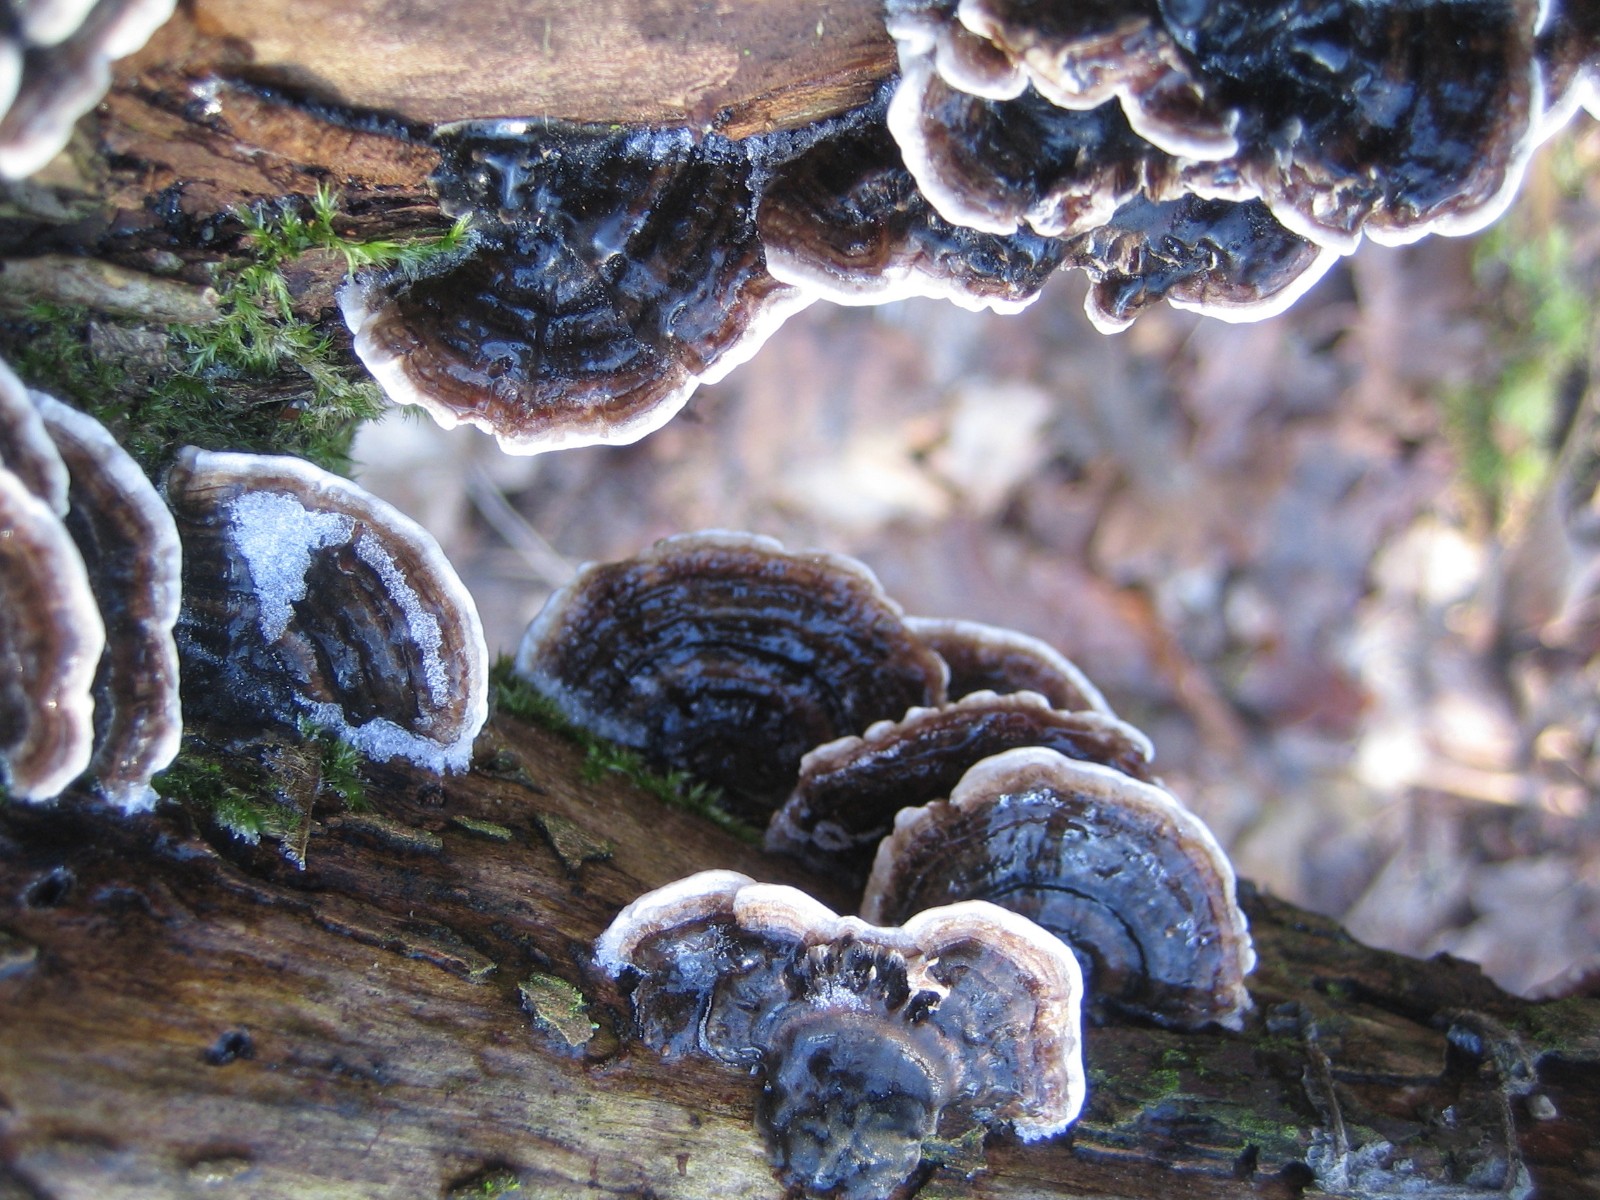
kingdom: Fungi
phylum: Basidiomycota
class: Agaricomycetes
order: Polyporales
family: Polyporaceae
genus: Trametes
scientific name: Trametes versicolor
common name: broget læderporesvamp
